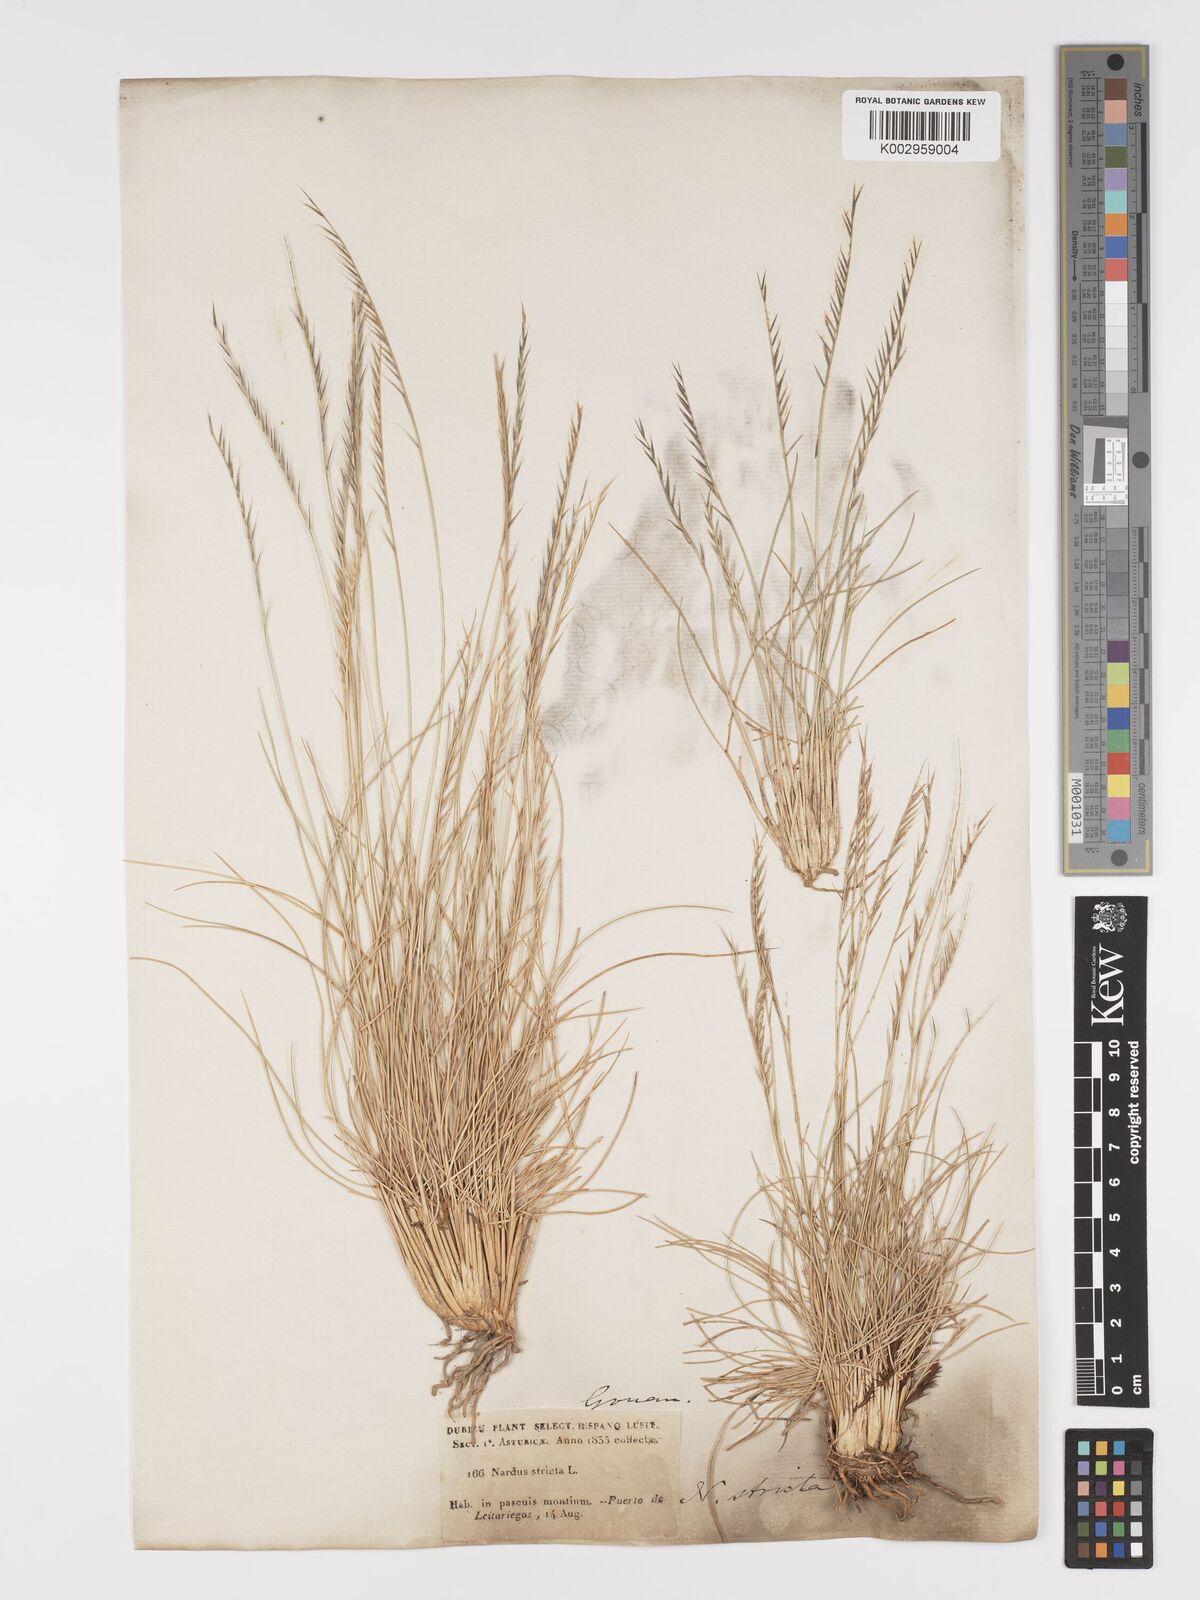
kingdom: Plantae
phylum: Tracheophyta
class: Liliopsida
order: Poales
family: Poaceae
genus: Nardus
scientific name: Nardus stricta
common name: Mat-grass
